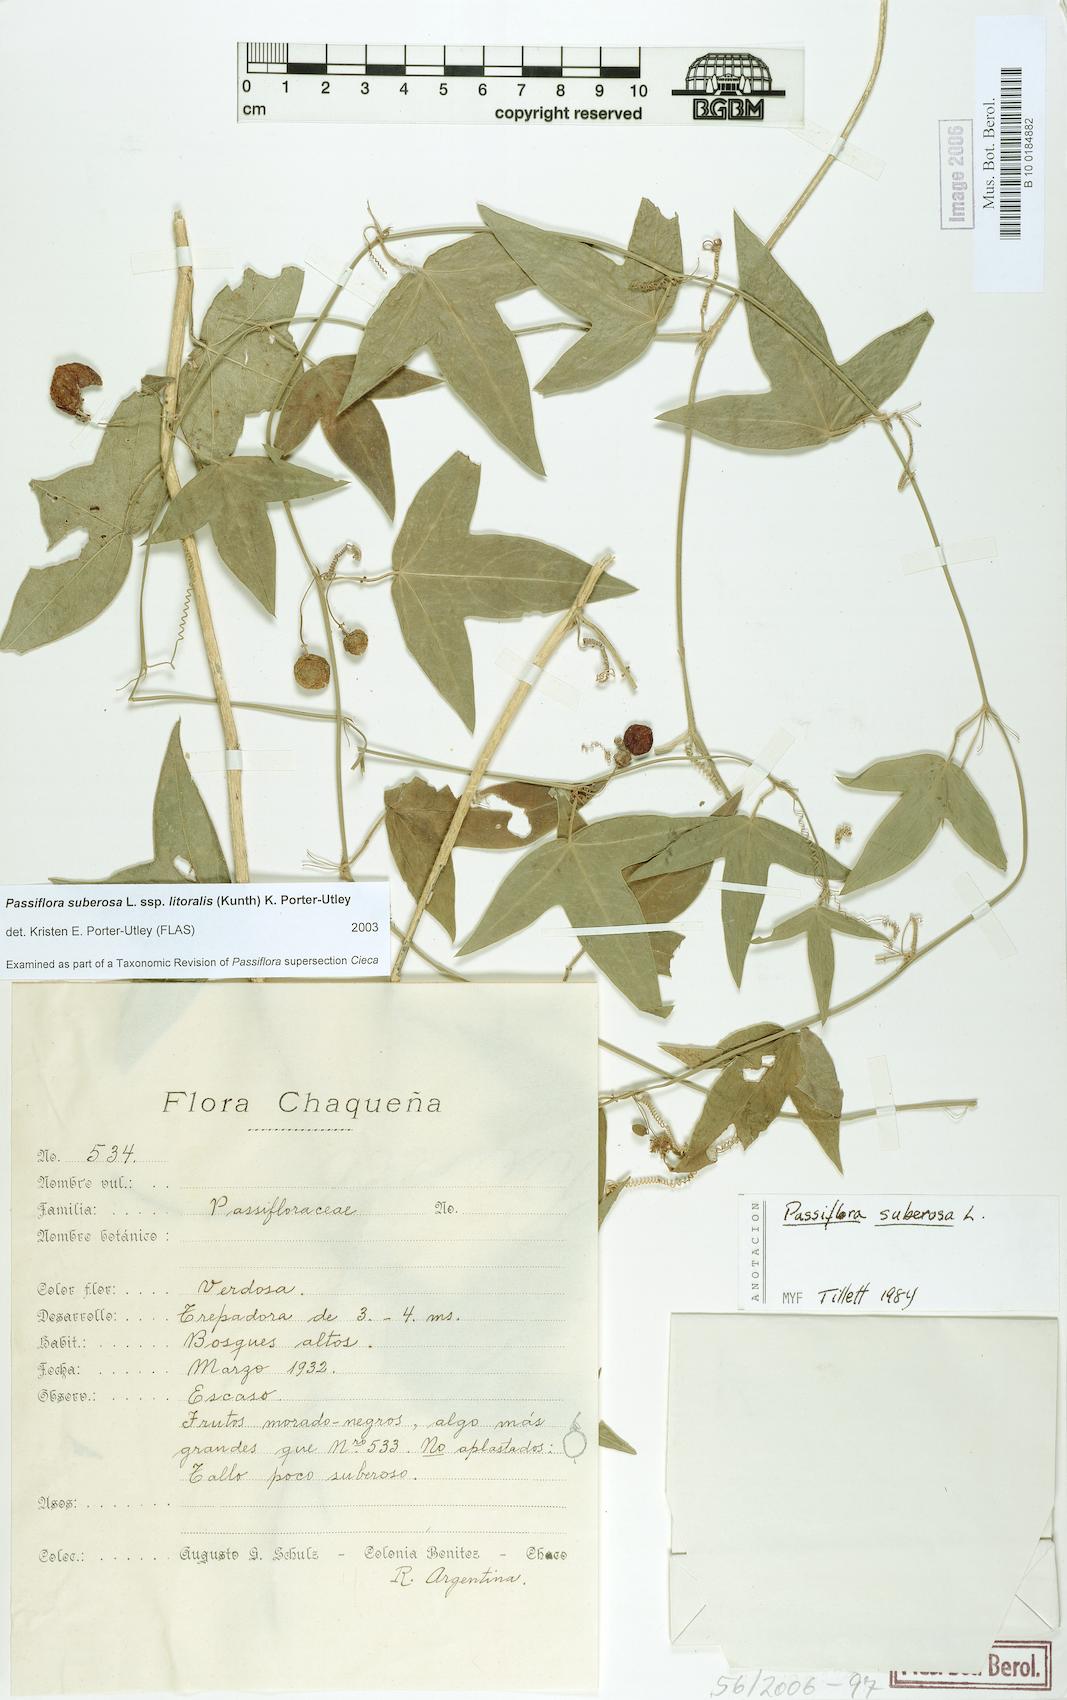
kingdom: Plantae
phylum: Tracheophyta
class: Magnoliopsida
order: Malpighiales
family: Passifloraceae
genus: Passiflora
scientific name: Passiflora suberosa
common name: Wild passionfruit
